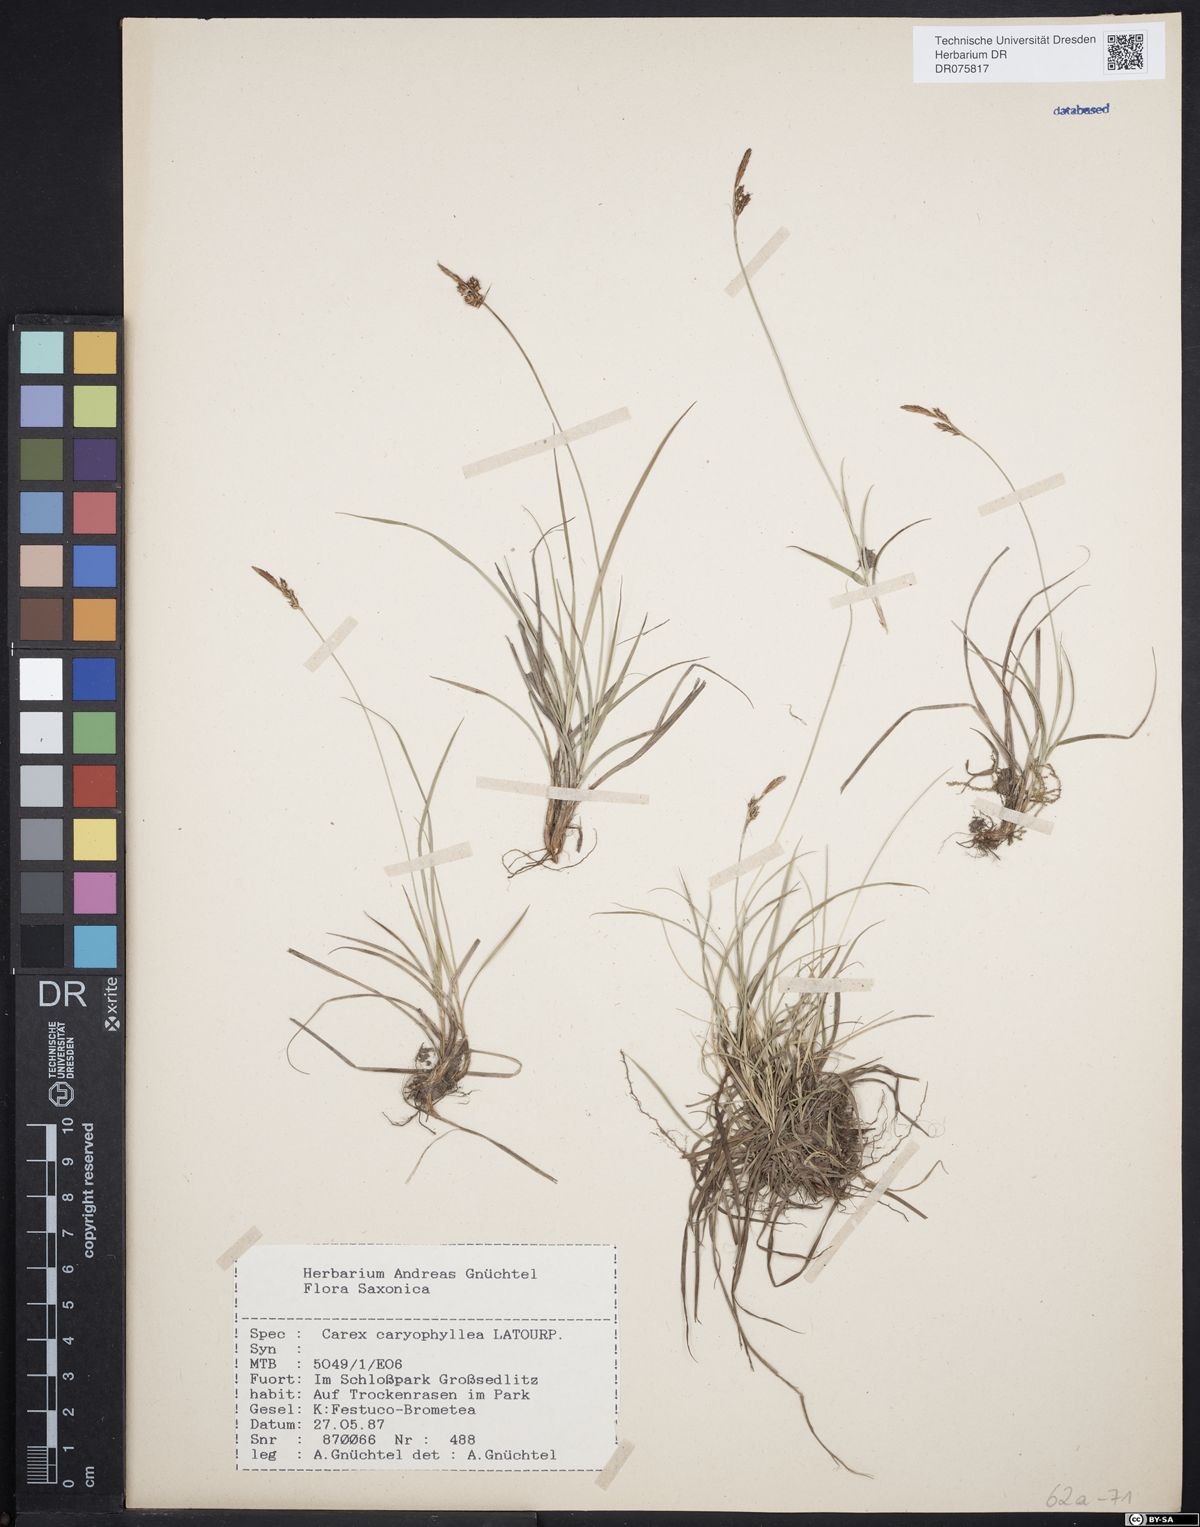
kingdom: Plantae
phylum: Tracheophyta
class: Liliopsida
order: Poales
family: Cyperaceae
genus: Carex
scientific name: Carex caryophyllea
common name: Spring sedge
